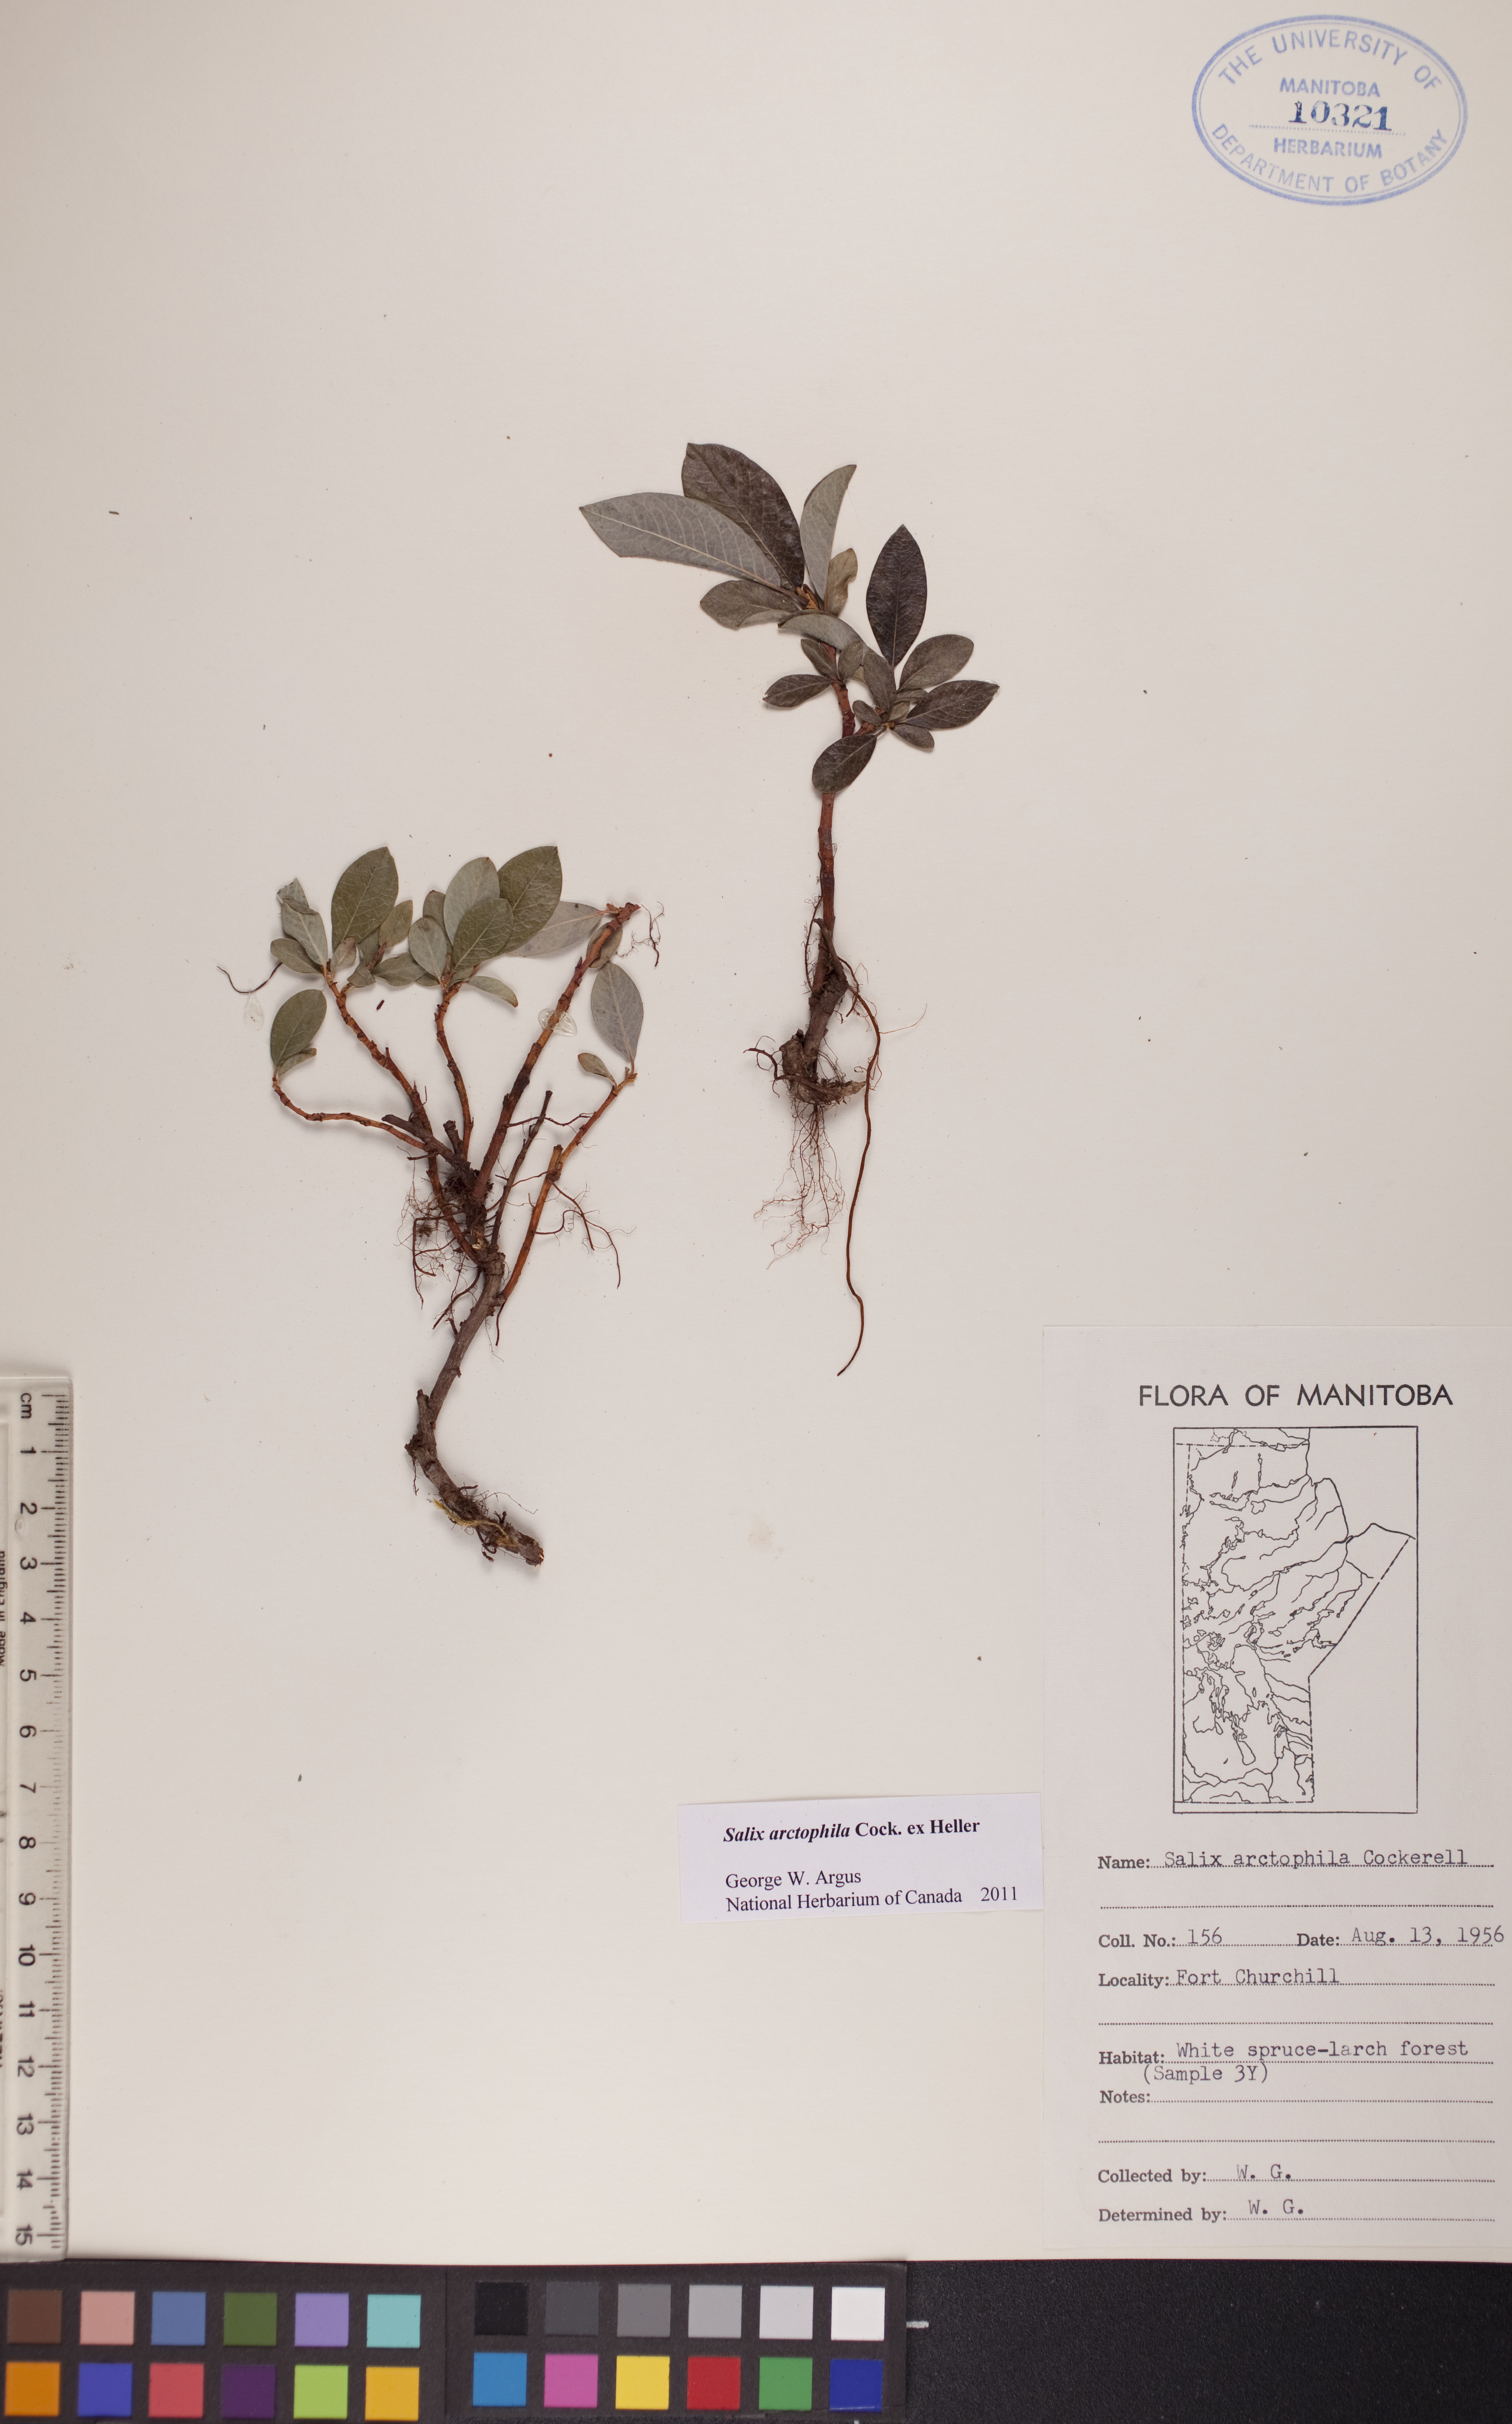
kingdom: Plantae
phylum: Tracheophyta
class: Magnoliopsida
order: Malpighiales
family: Salicaceae
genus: Salix
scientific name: Salix arctophila
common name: Greenland willow
